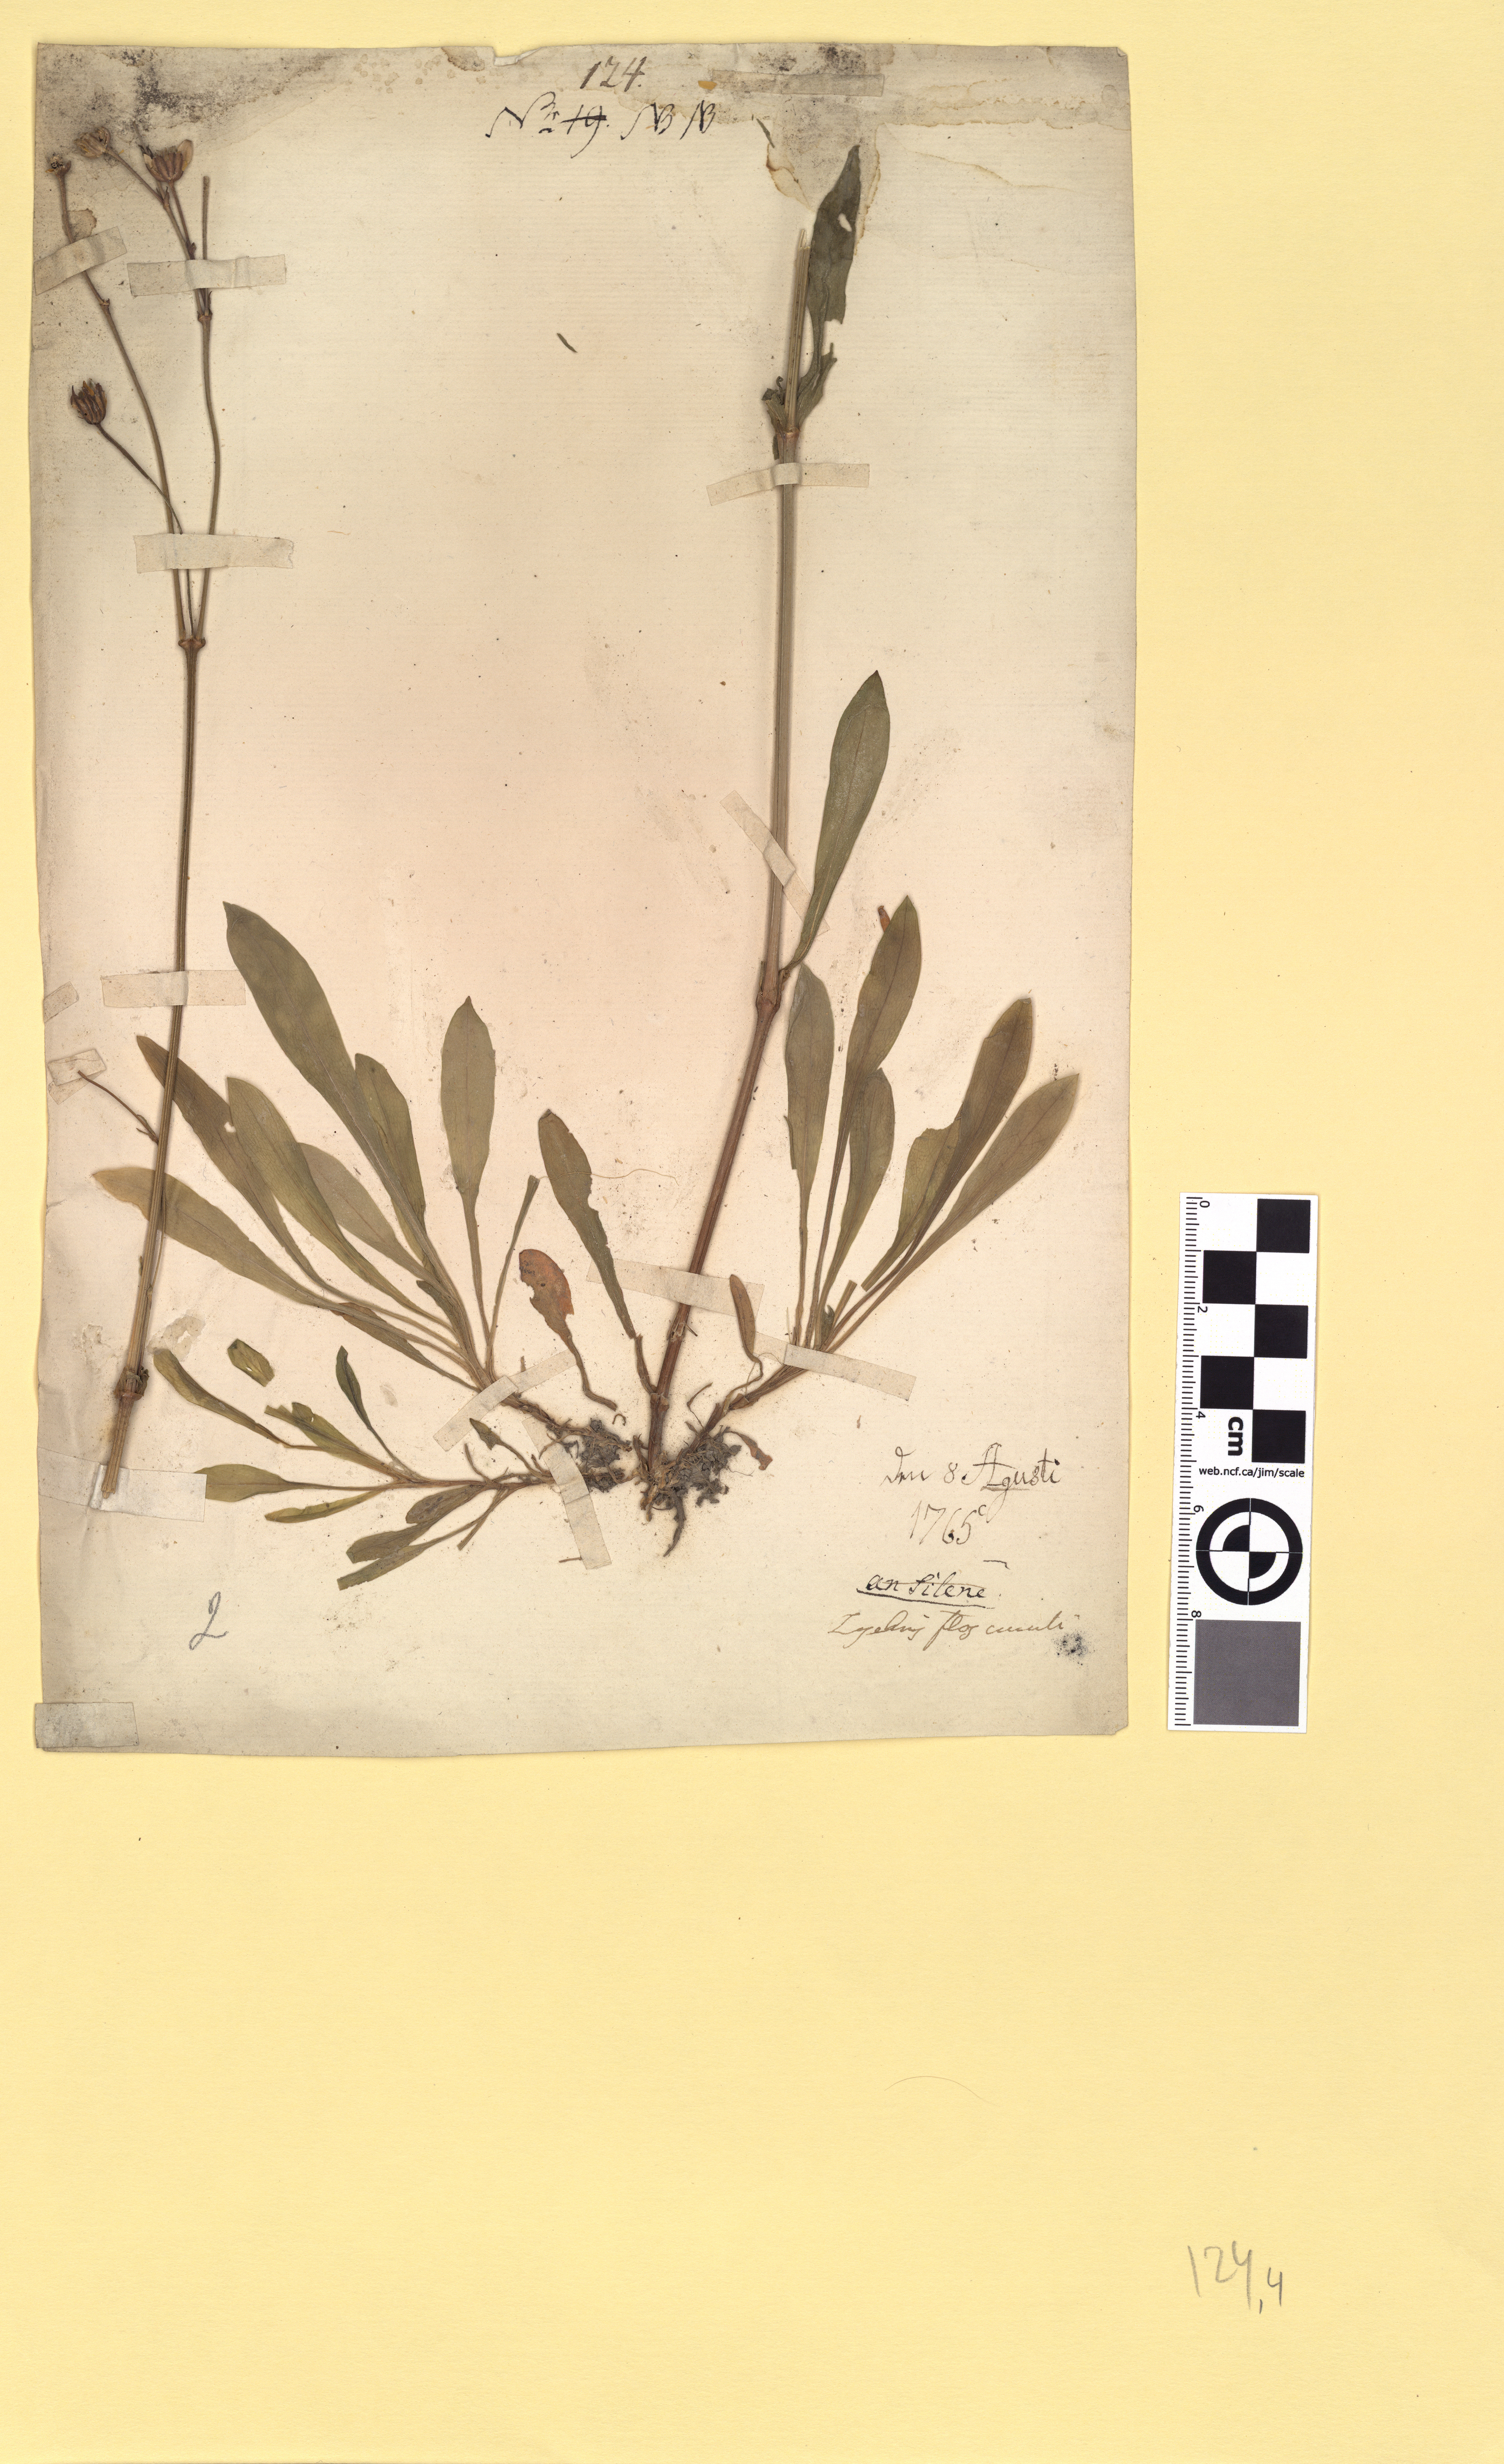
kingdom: Plantae
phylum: Tracheophyta
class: Magnoliopsida
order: Caryophyllales
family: Caryophyllaceae
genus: Silene
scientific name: Silene flos-cuculi
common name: Ragged-robin
